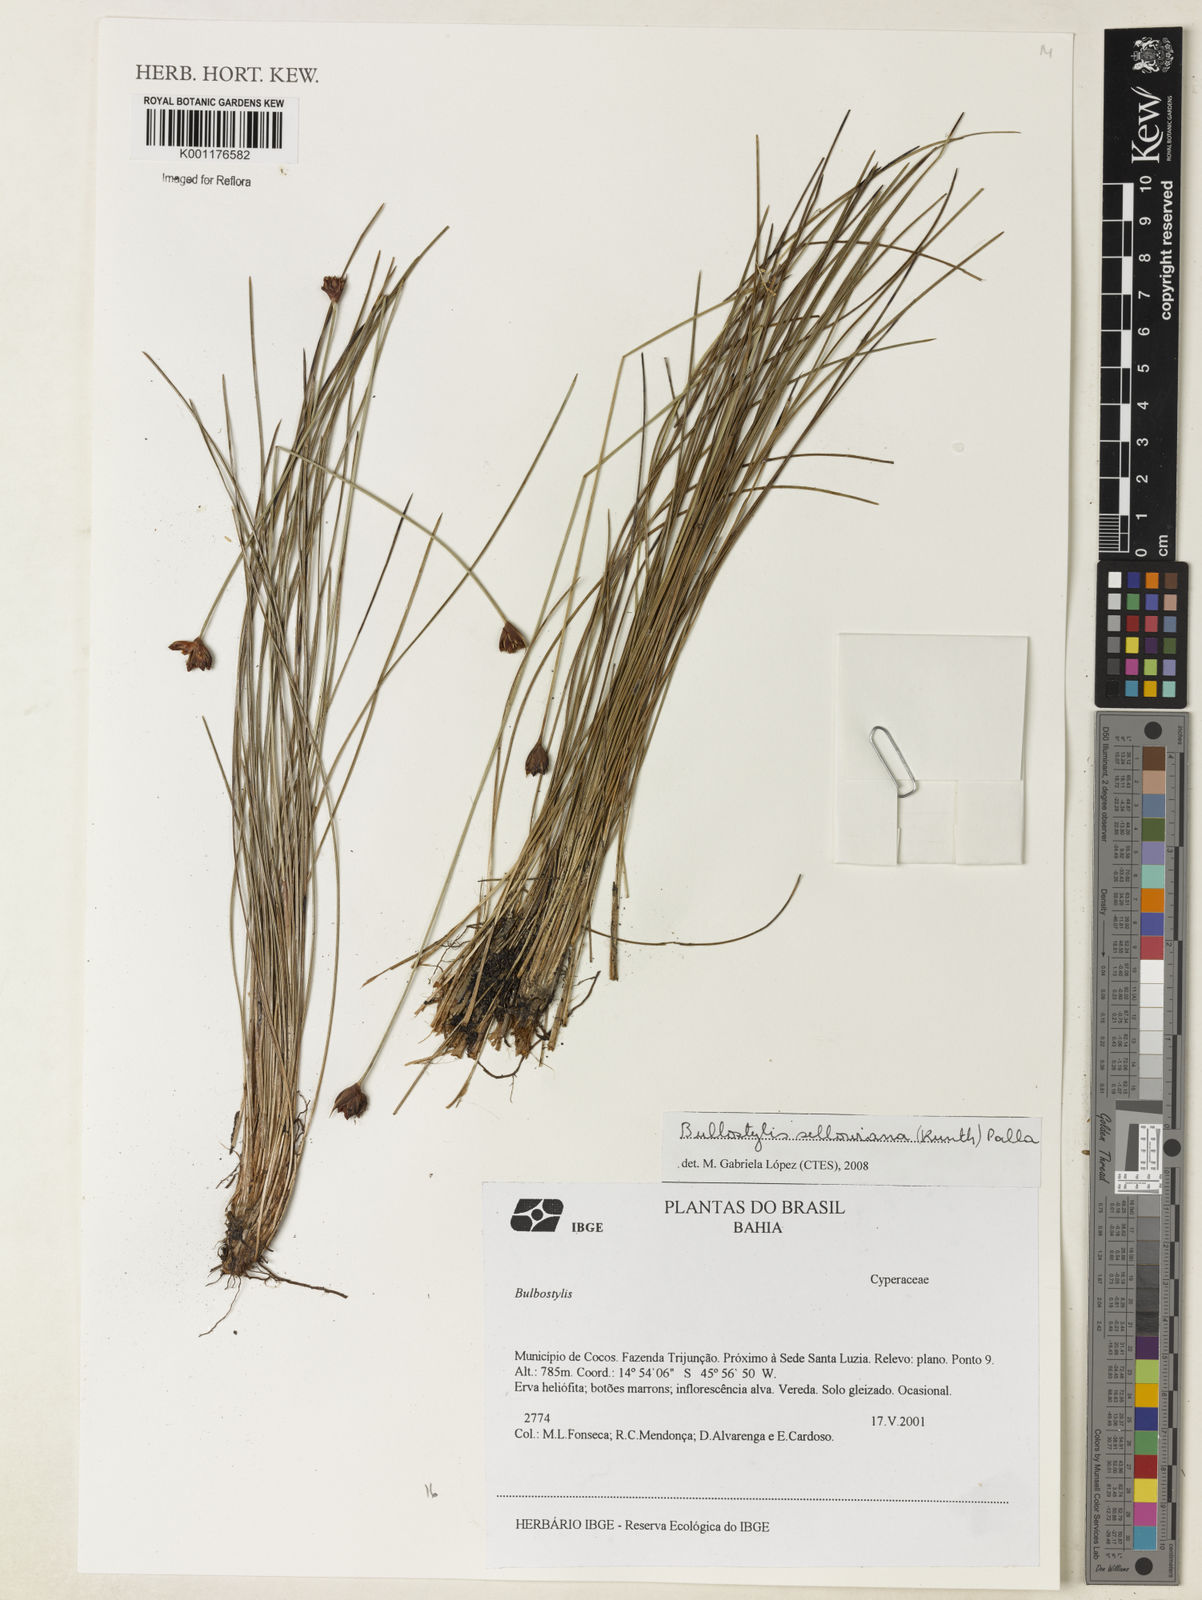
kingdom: Plantae
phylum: Tracheophyta
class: Liliopsida
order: Poales
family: Cyperaceae
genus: Bulbostylis
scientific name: Bulbostylis sellowiana
